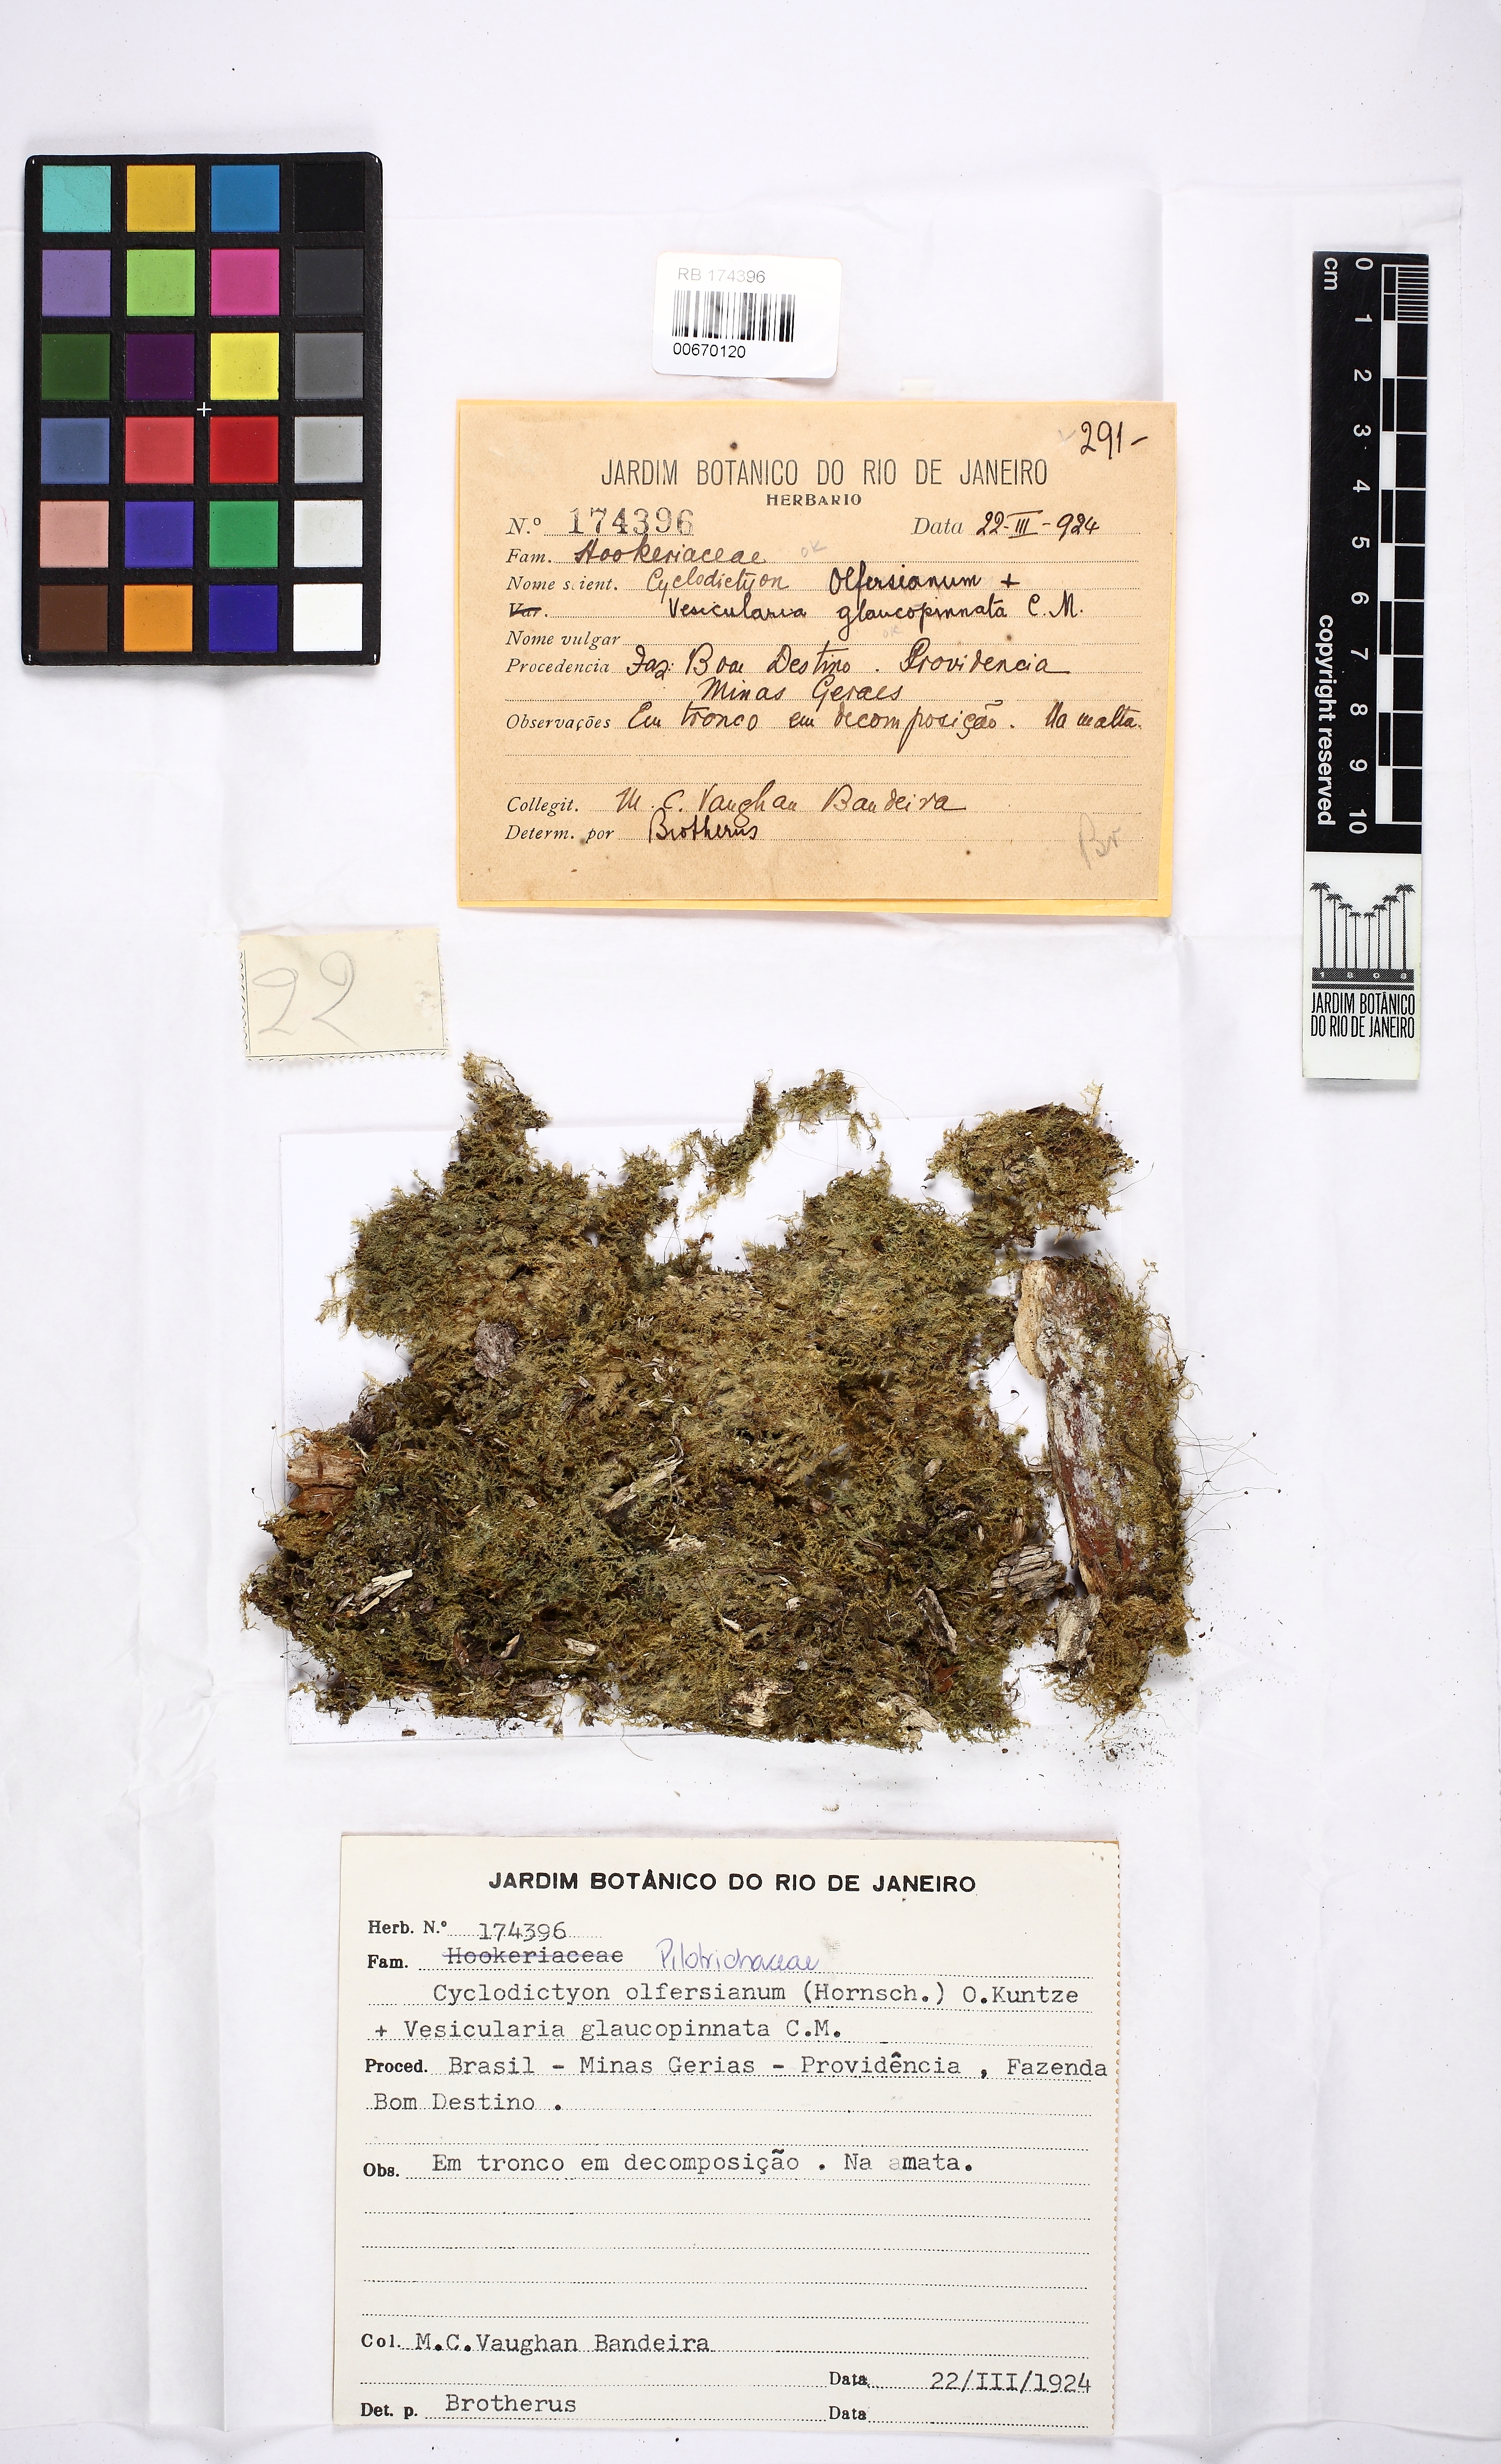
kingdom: Plantae
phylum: Bryophyta
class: Bryopsida
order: Hookeriales
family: Pilotrichaceae
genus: Cyclodictyon
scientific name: Cyclodictyon olfersianum
